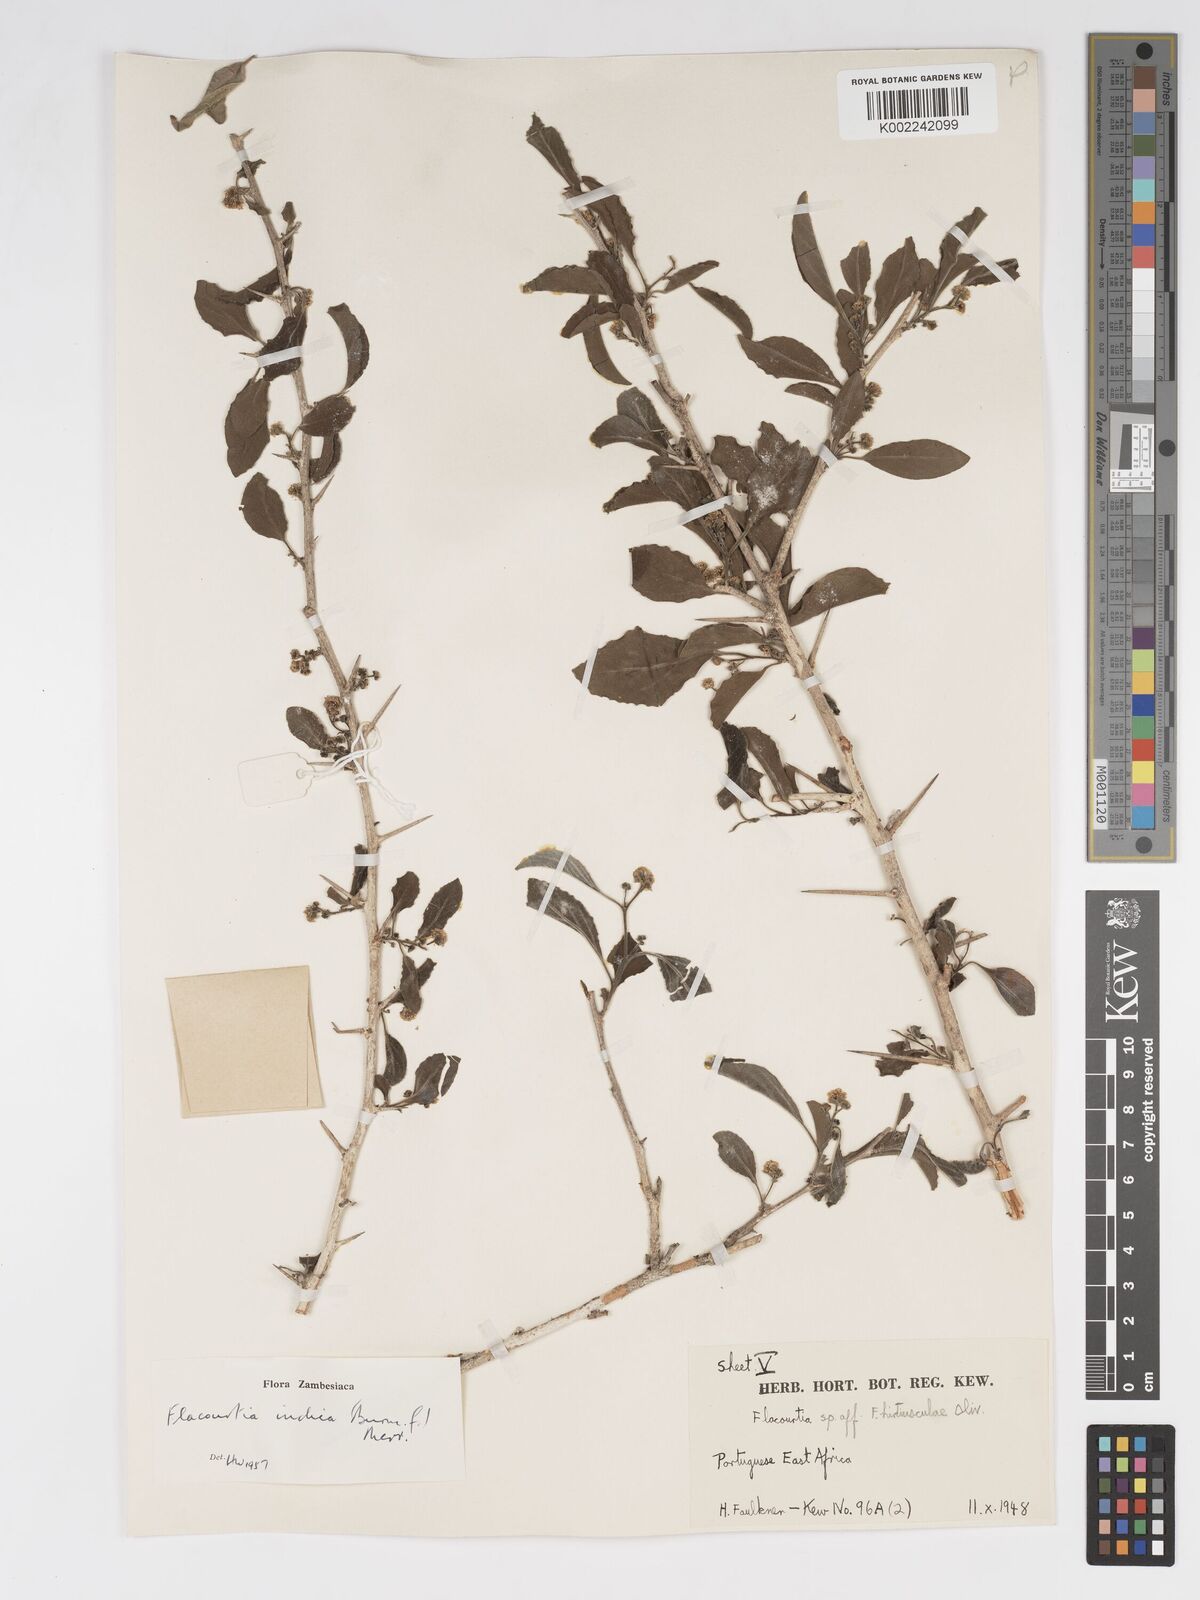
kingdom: Plantae
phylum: Tracheophyta
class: Magnoliopsida
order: Malpighiales
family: Salicaceae
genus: Flacourtia
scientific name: Flacourtia indica
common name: Governor's plum
